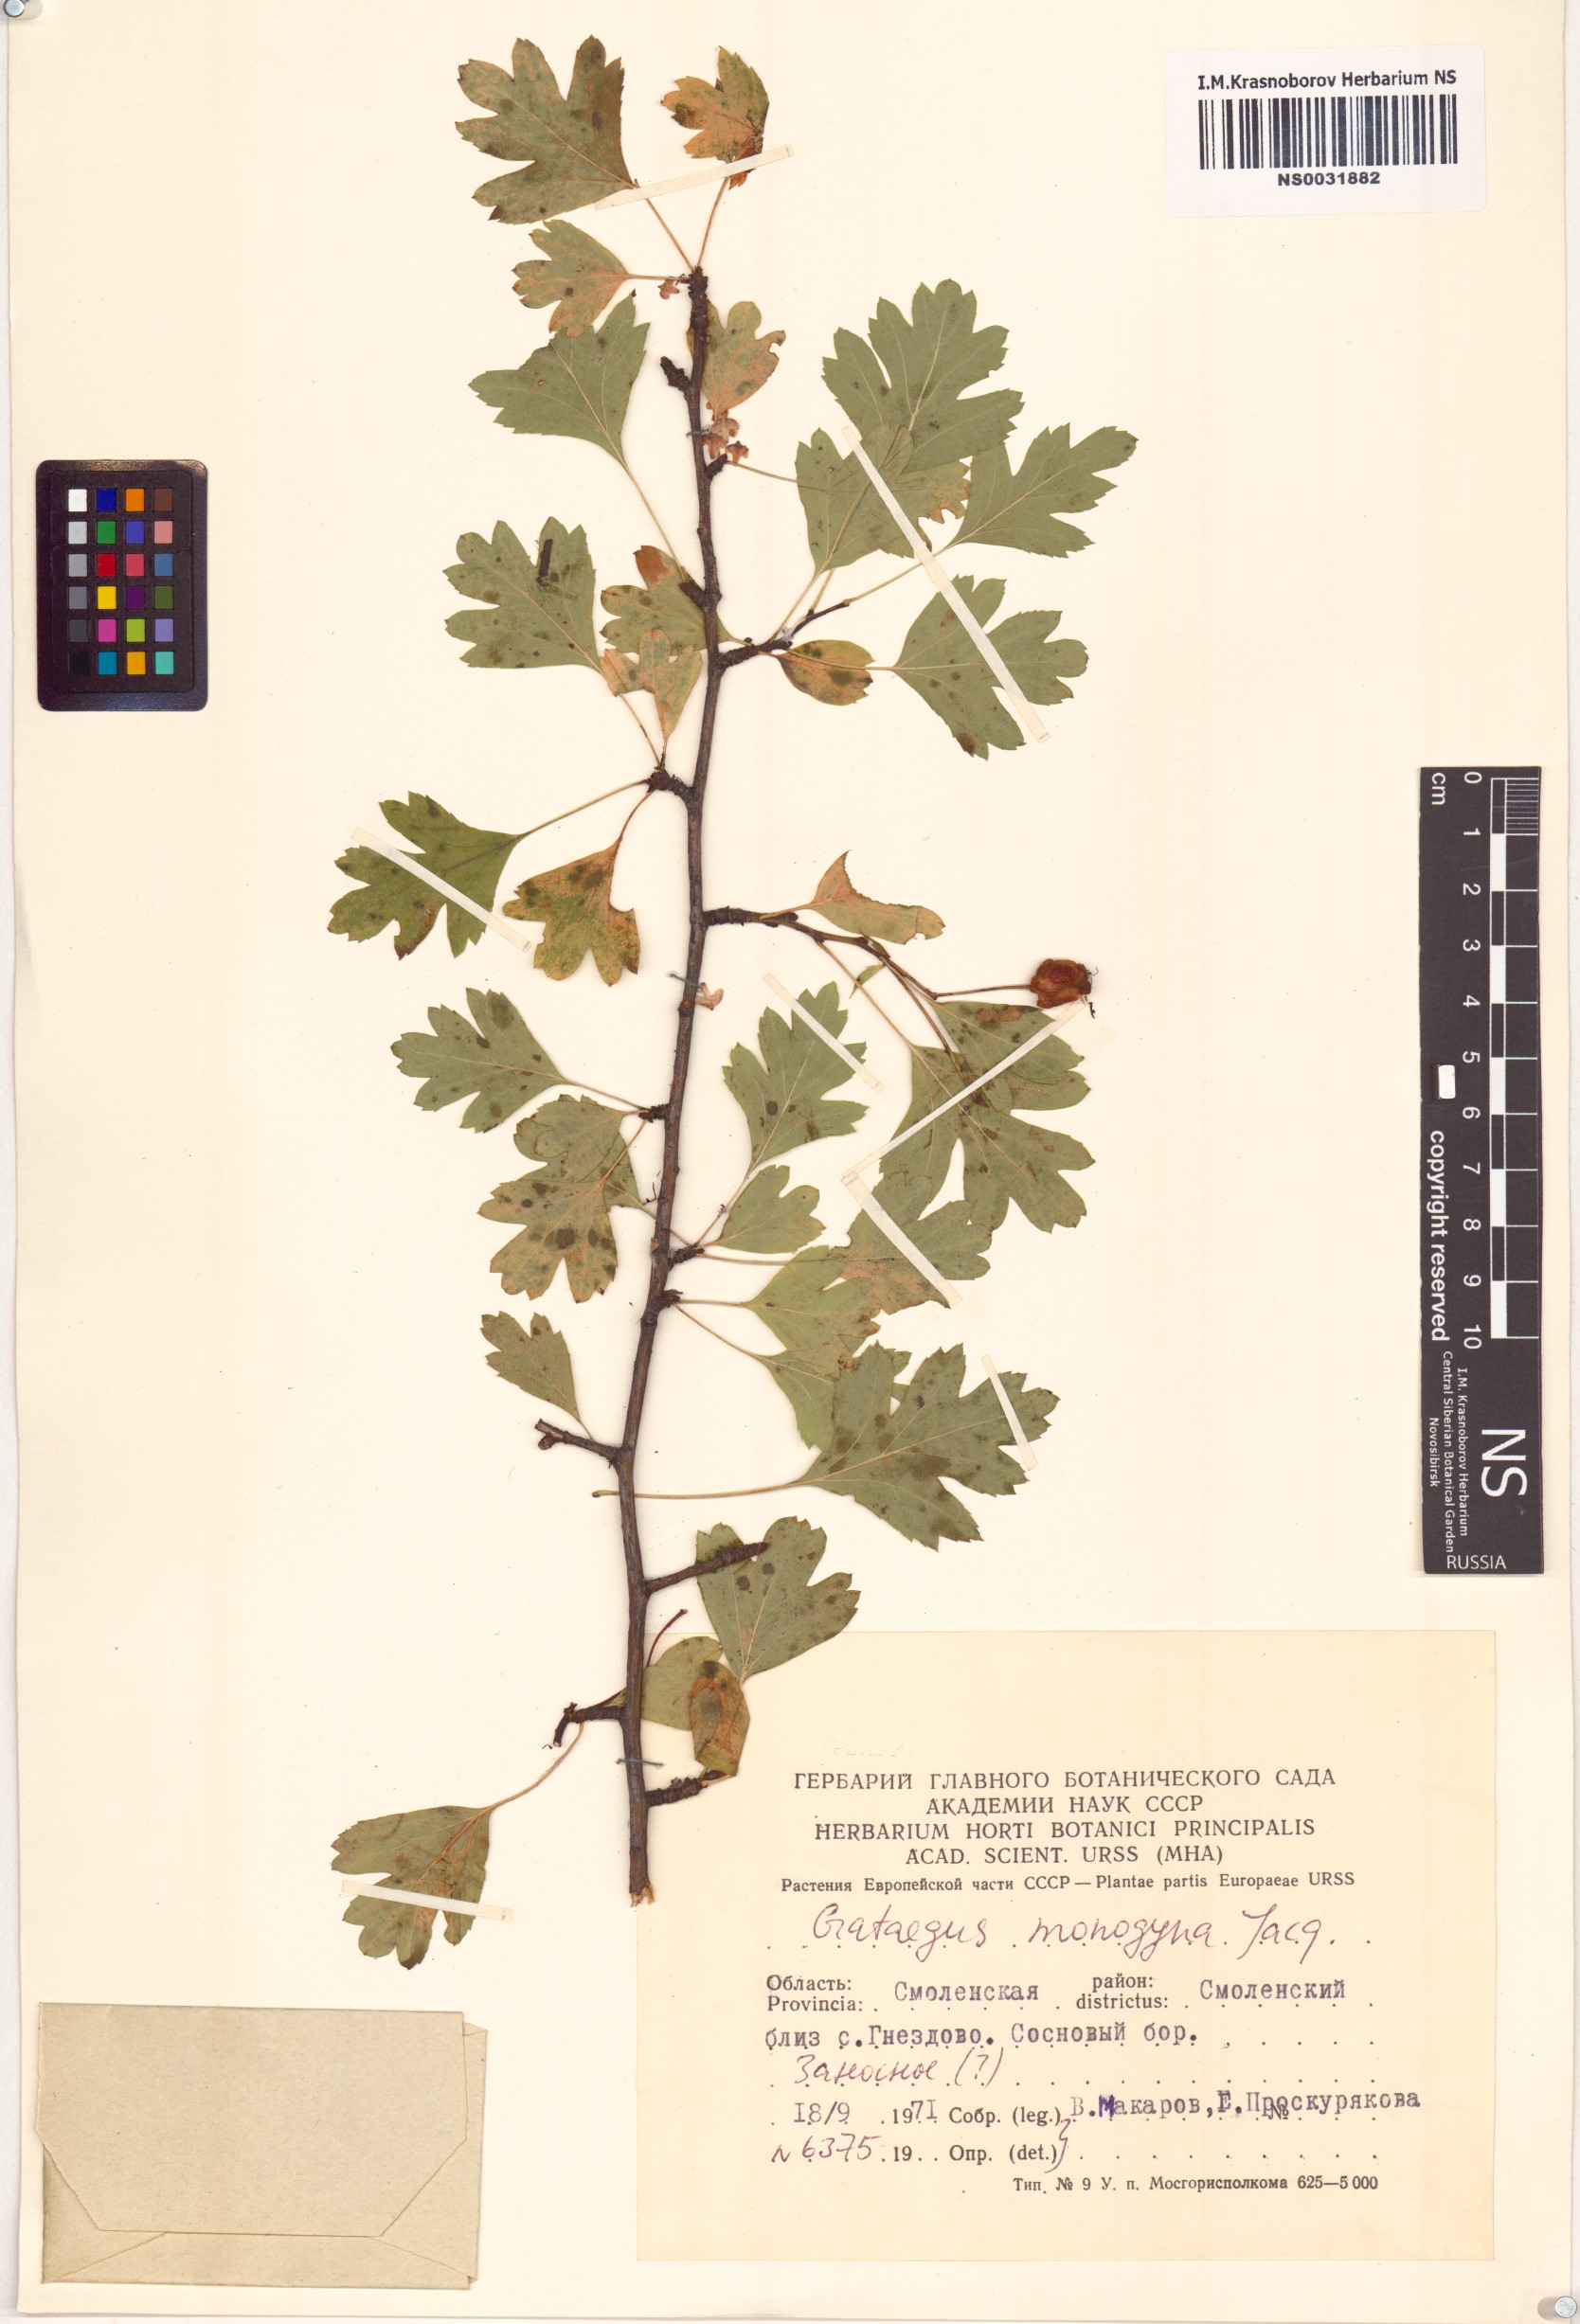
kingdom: Plantae
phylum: Tracheophyta
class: Magnoliopsida
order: Rosales
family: Rosaceae
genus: Crataegus
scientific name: Crataegus monogyna
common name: Hawthorn
